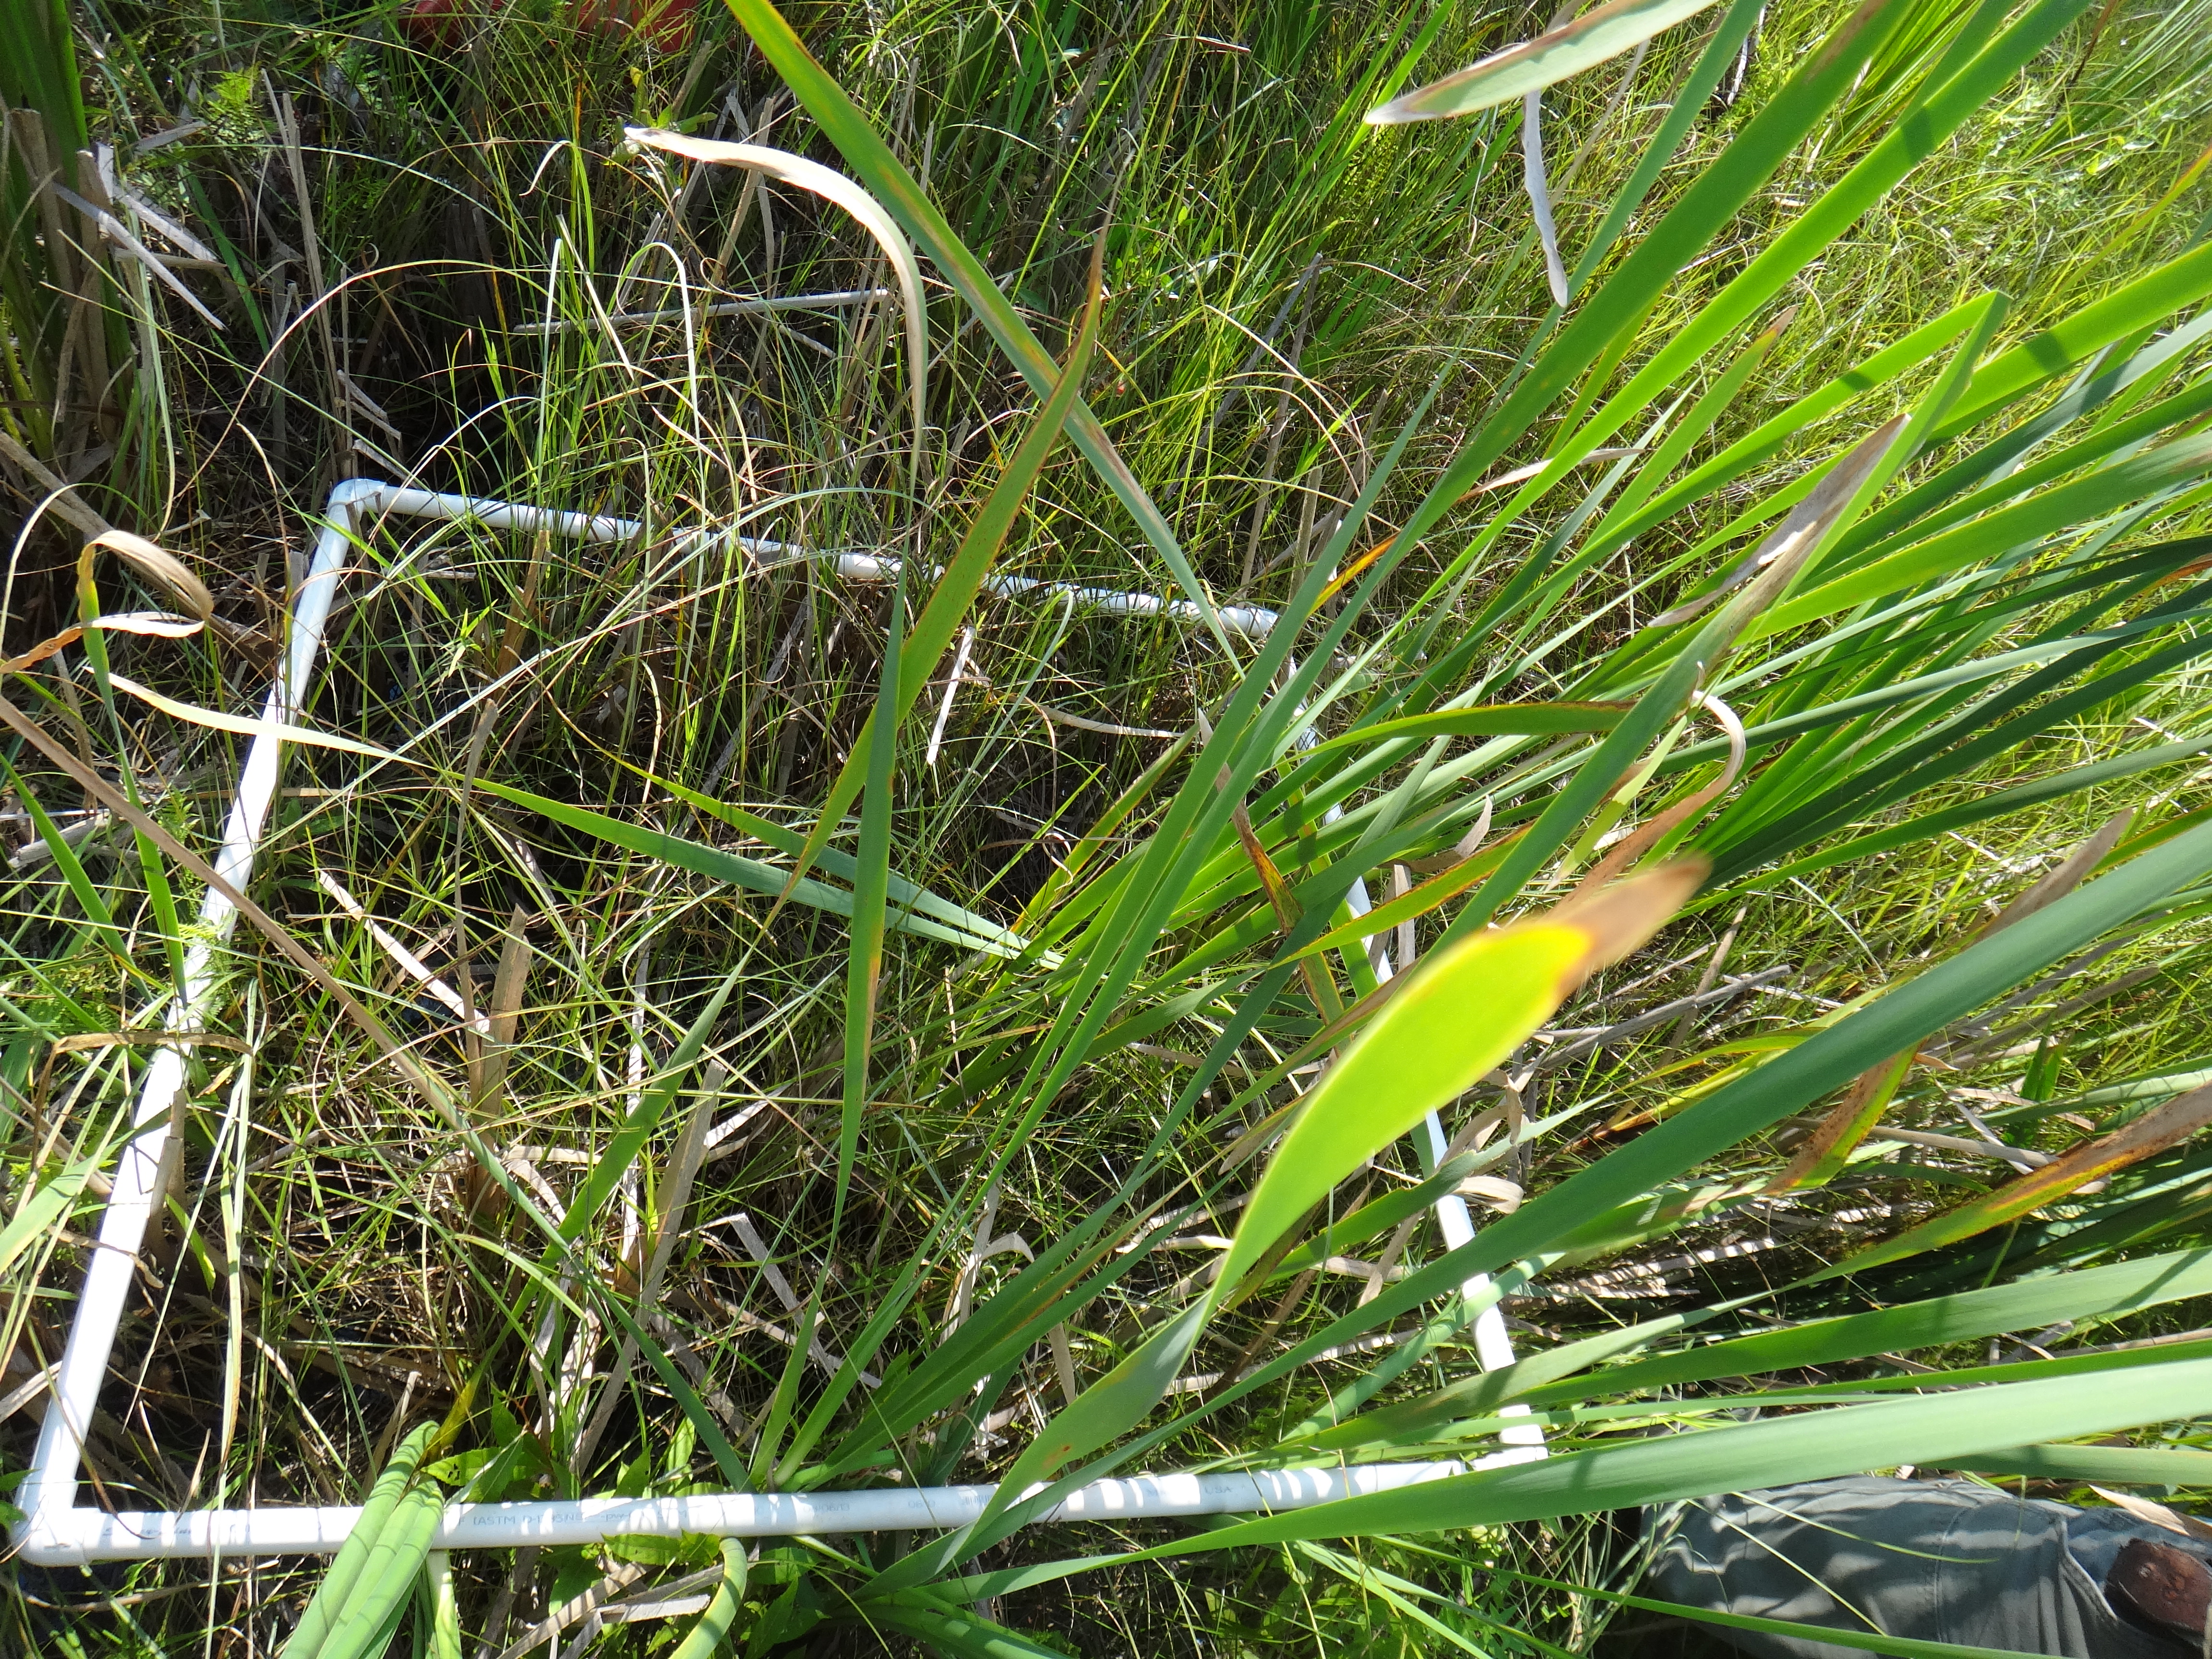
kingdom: Plantae
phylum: Tracheophyta
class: Polypodiopsida
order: Polypodiales
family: Thelypteridaceae
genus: Thelypteris
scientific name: Thelypteris palustris
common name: Marsh fern
